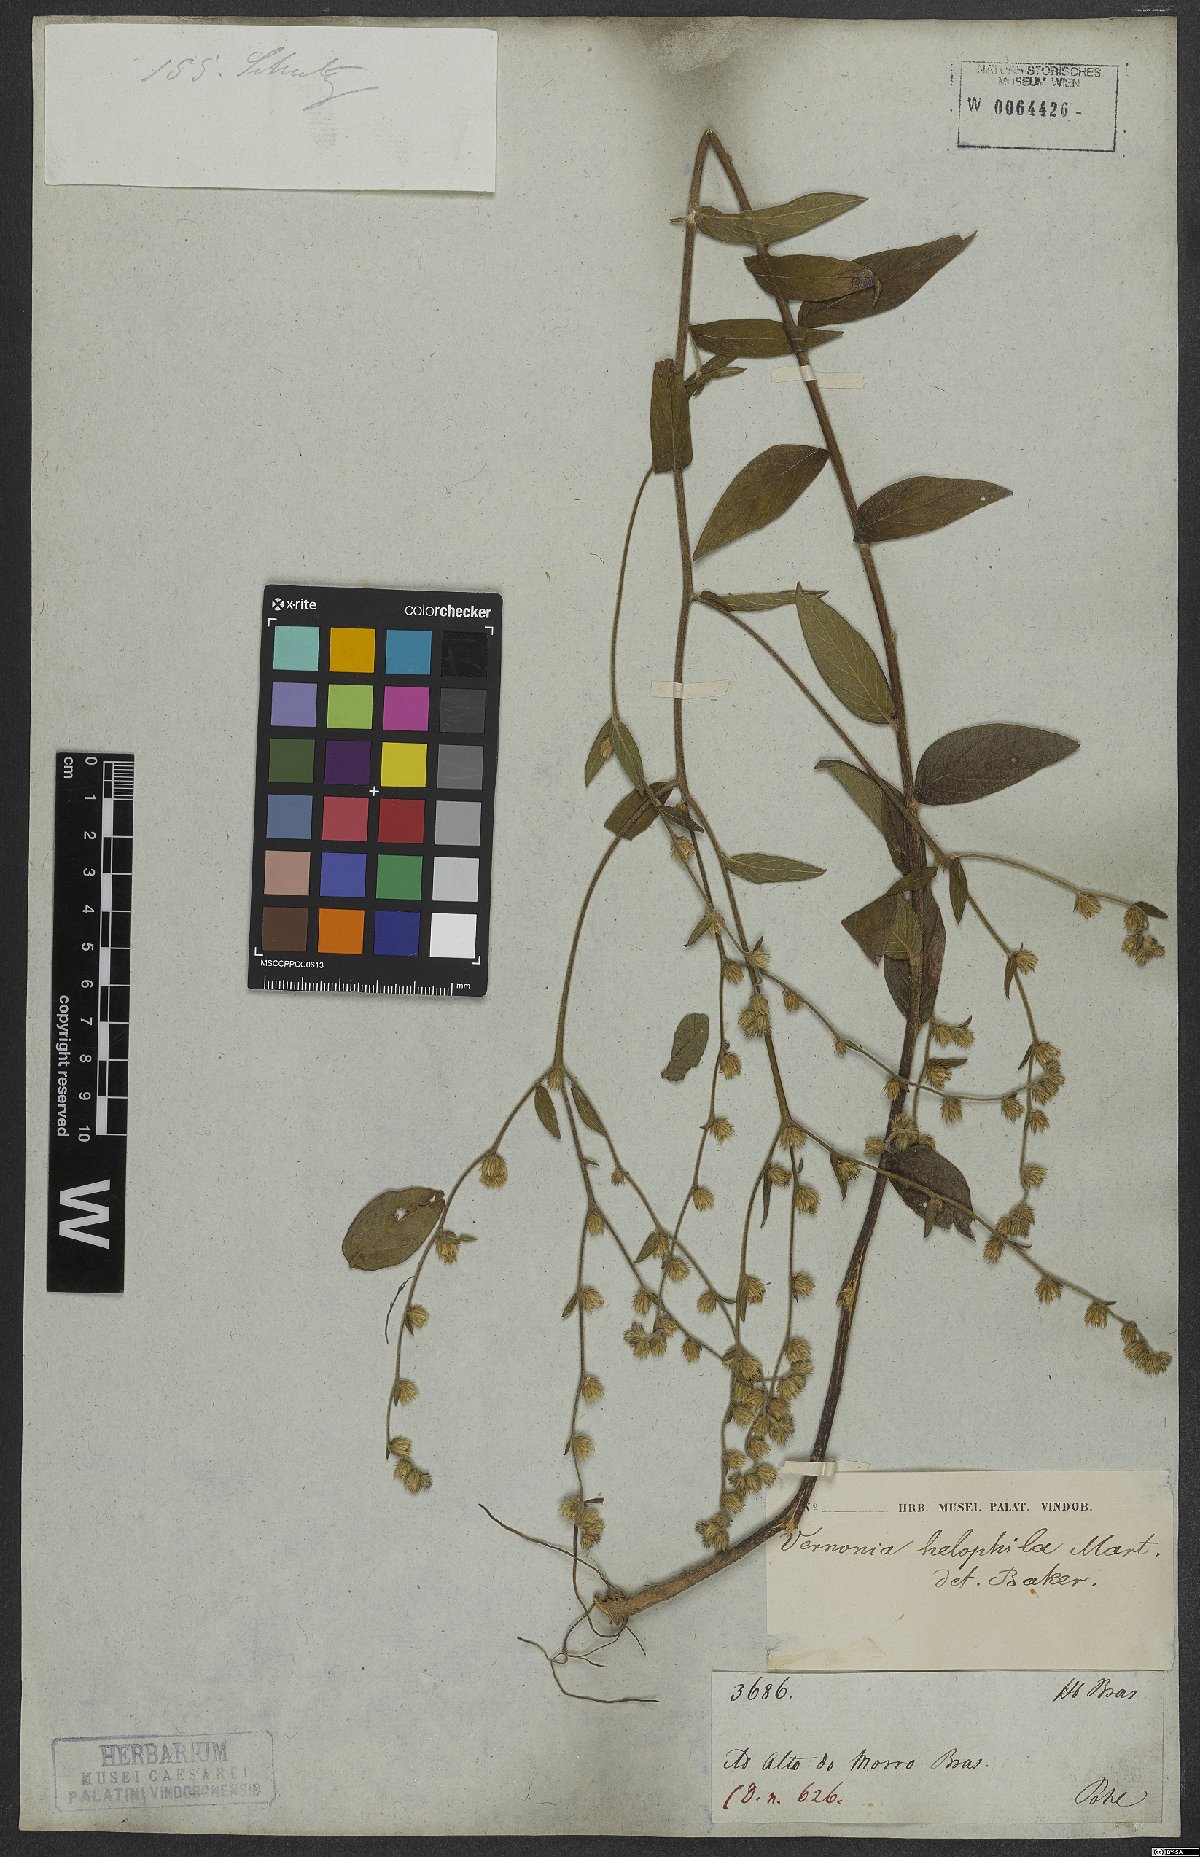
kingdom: Plantae
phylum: Tracheophyta
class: Magnoliopsida
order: Asterales
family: Asteraceae
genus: Lepidaploa
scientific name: Lepidaploa helophila
